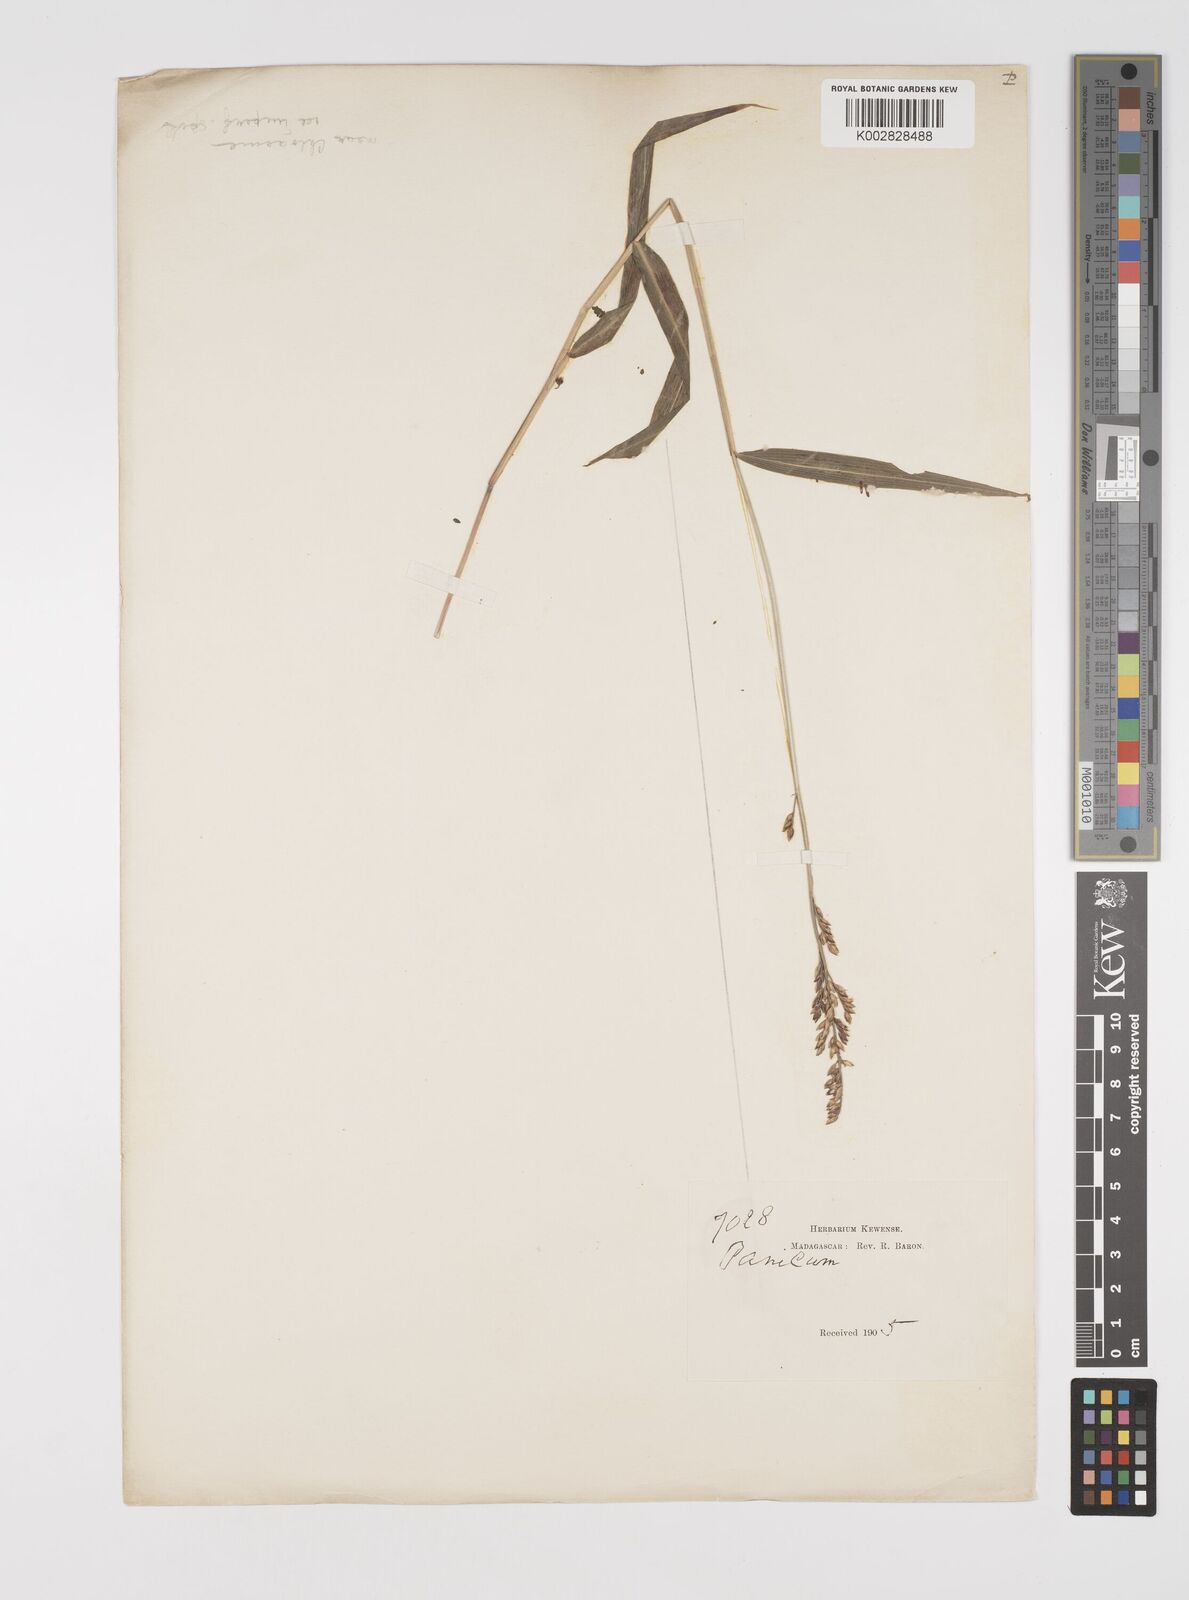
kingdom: Plantae
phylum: Tracheophyta
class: Liliopsida
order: Poales
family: Poaceae
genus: Acroceras
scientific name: Acroceras ivohibense
